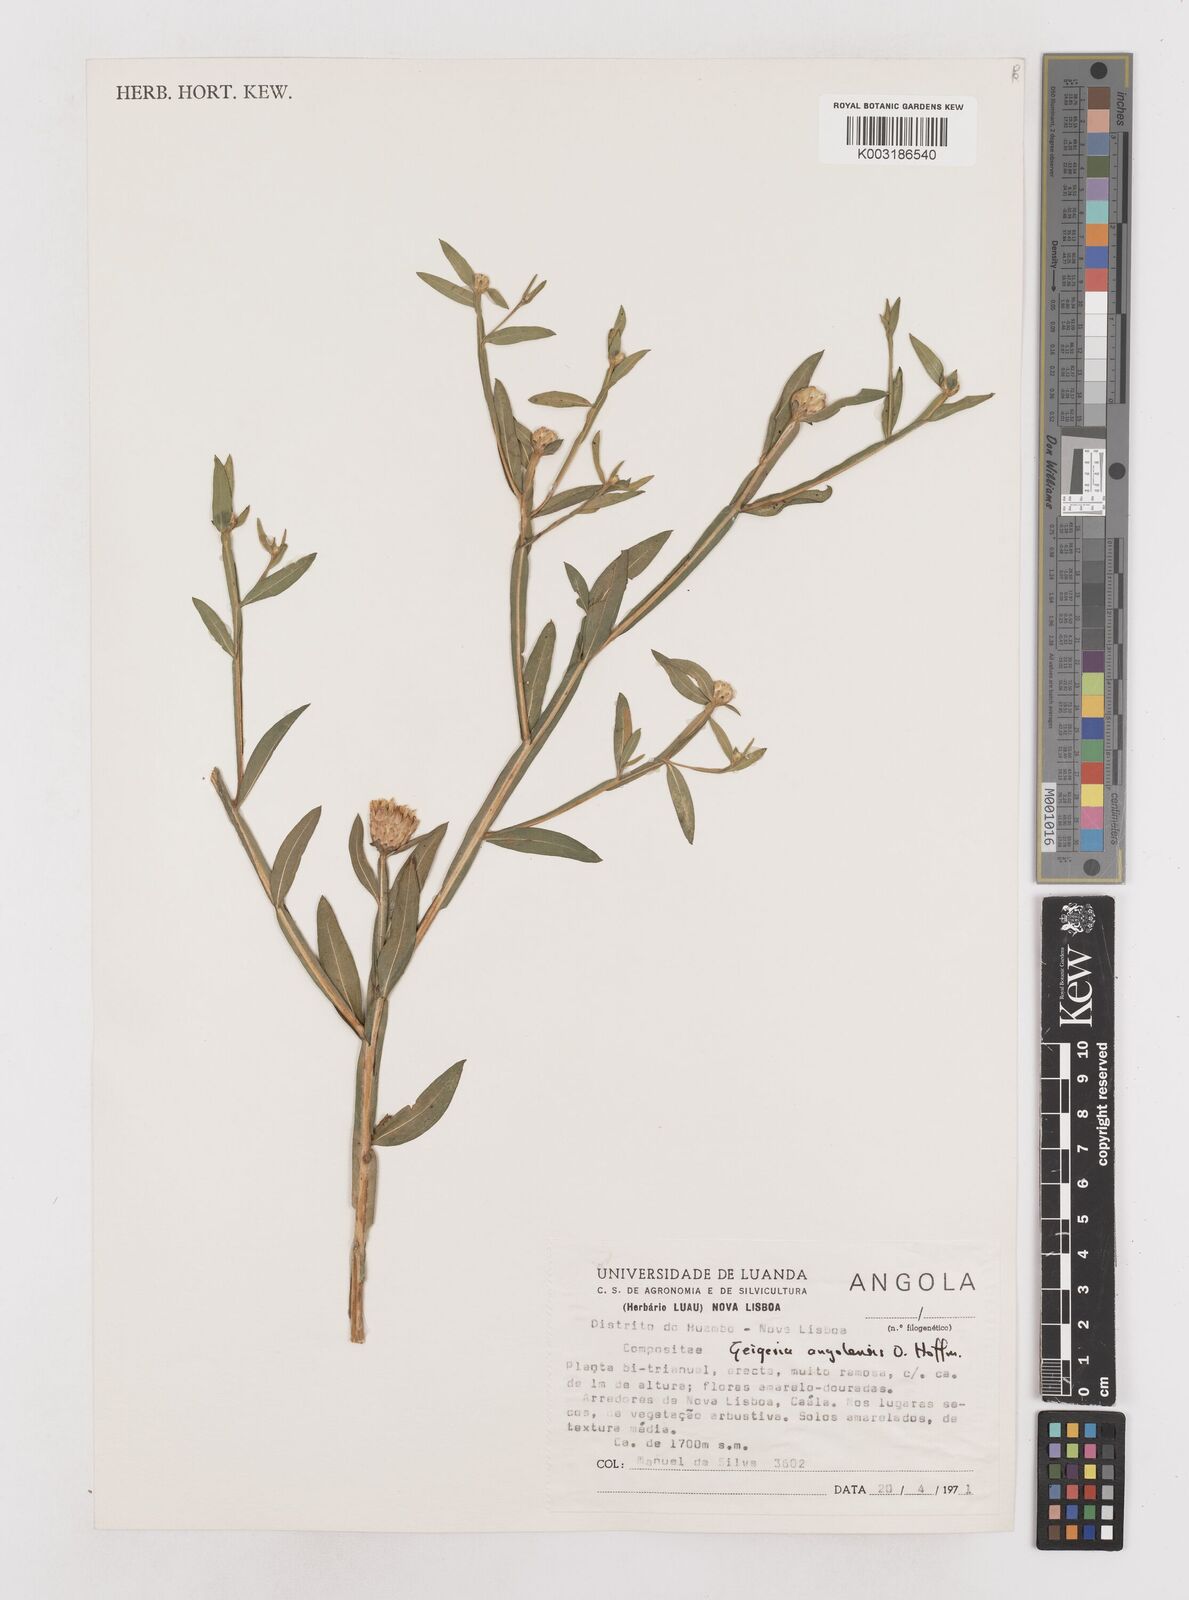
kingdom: Plantae
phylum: Tracheophyta
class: Magnoliopsida
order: Asterales
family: Asteraceae
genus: Geigeria
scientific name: Geigeria angolensis
